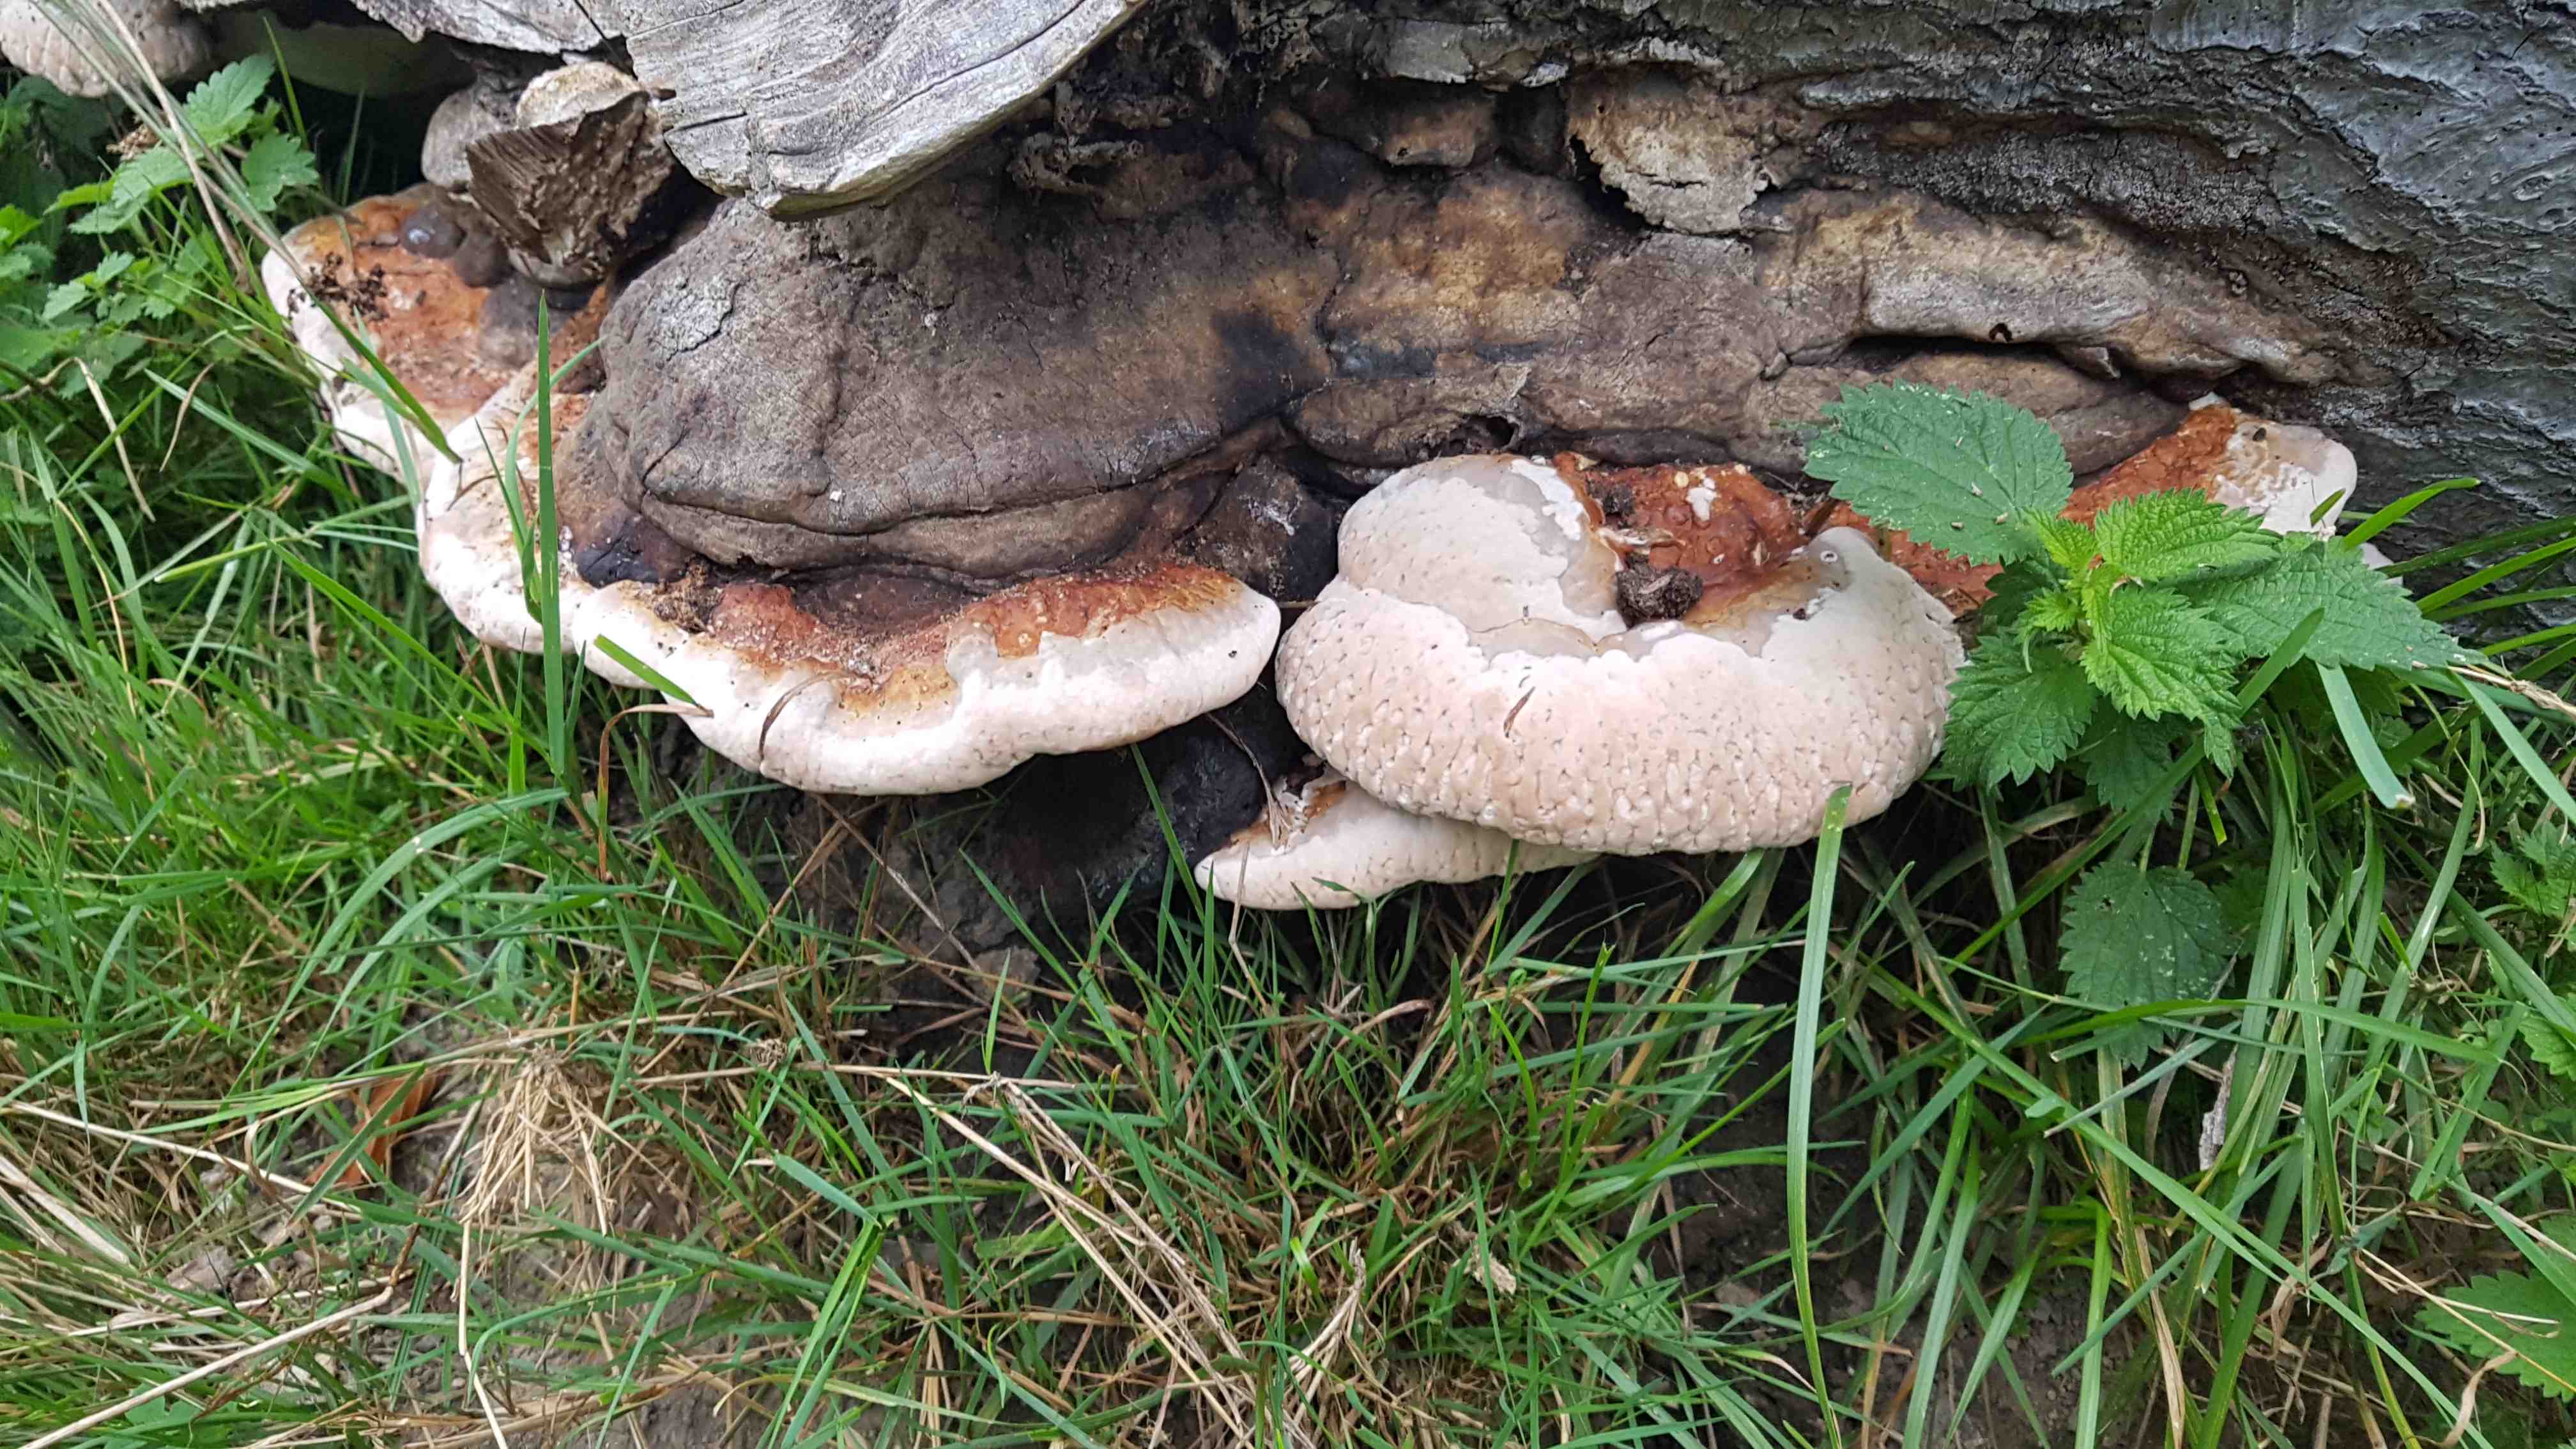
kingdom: Fungi
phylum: Basidiomycota
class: Agaricomycetes
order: Polyporales
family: Fomitopsidaceae
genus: Fomitopsis
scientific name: Fomitopsis pinicola
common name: randbæltet hovporesvamp
